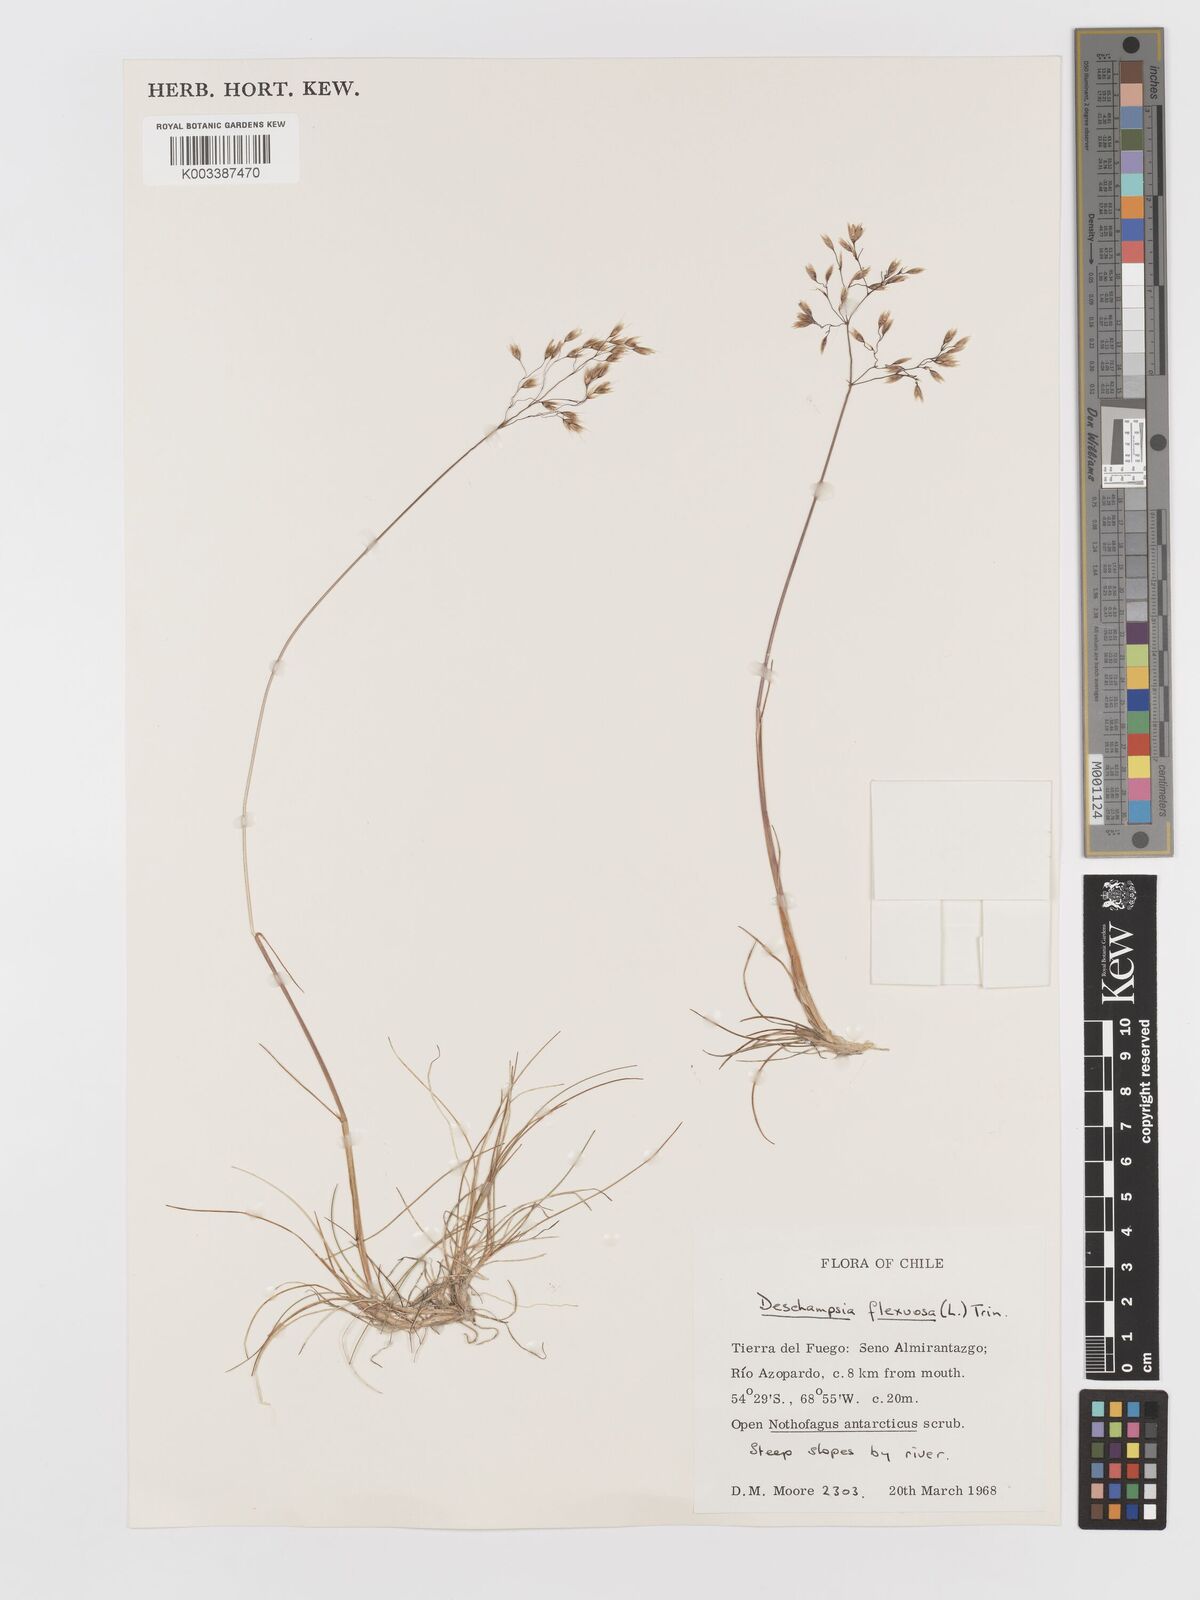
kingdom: Plantae
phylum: Tracheophyta
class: Liliopsida
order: Poales
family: Poaceae
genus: Avenella
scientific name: Avenella flexuosa
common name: Wavy hairgrass
